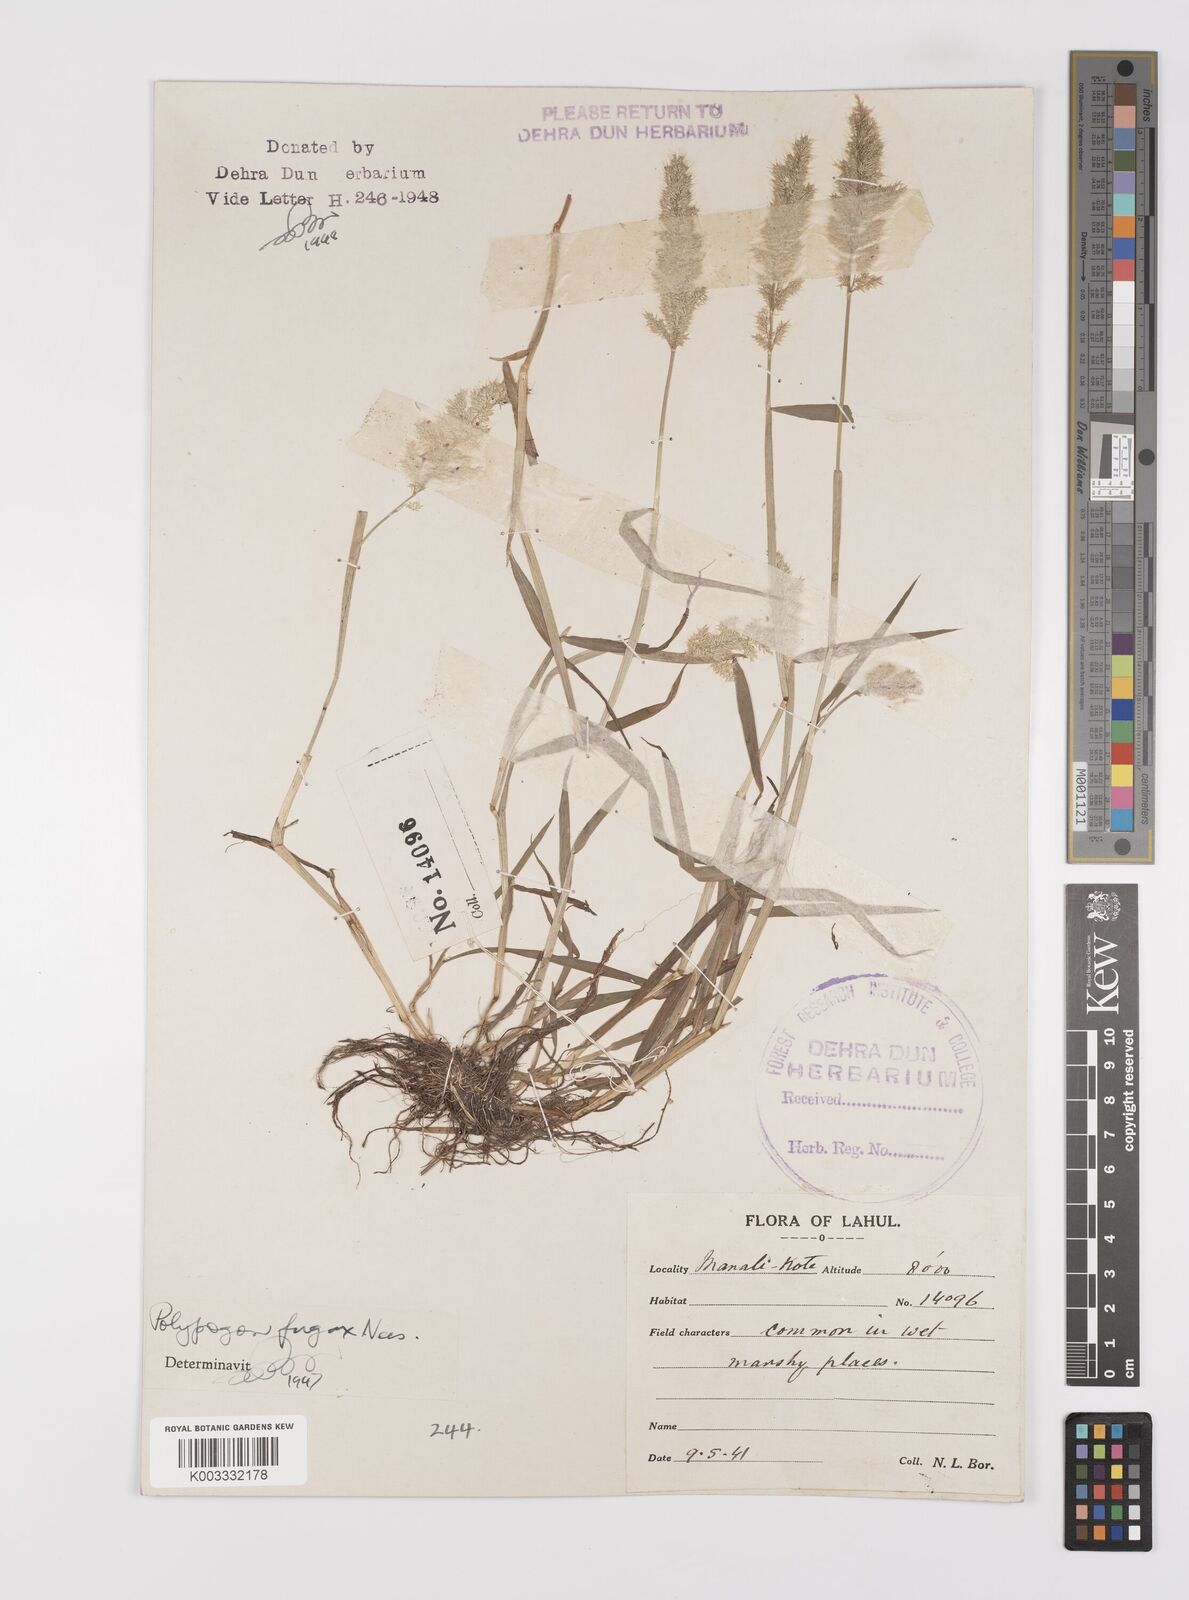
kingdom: Plantae
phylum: Tracheophyta
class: Liliopsida
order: Poales
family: Poaceae
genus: Polypogon
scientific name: Polypogon fugax
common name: Asia minor bluegrass
